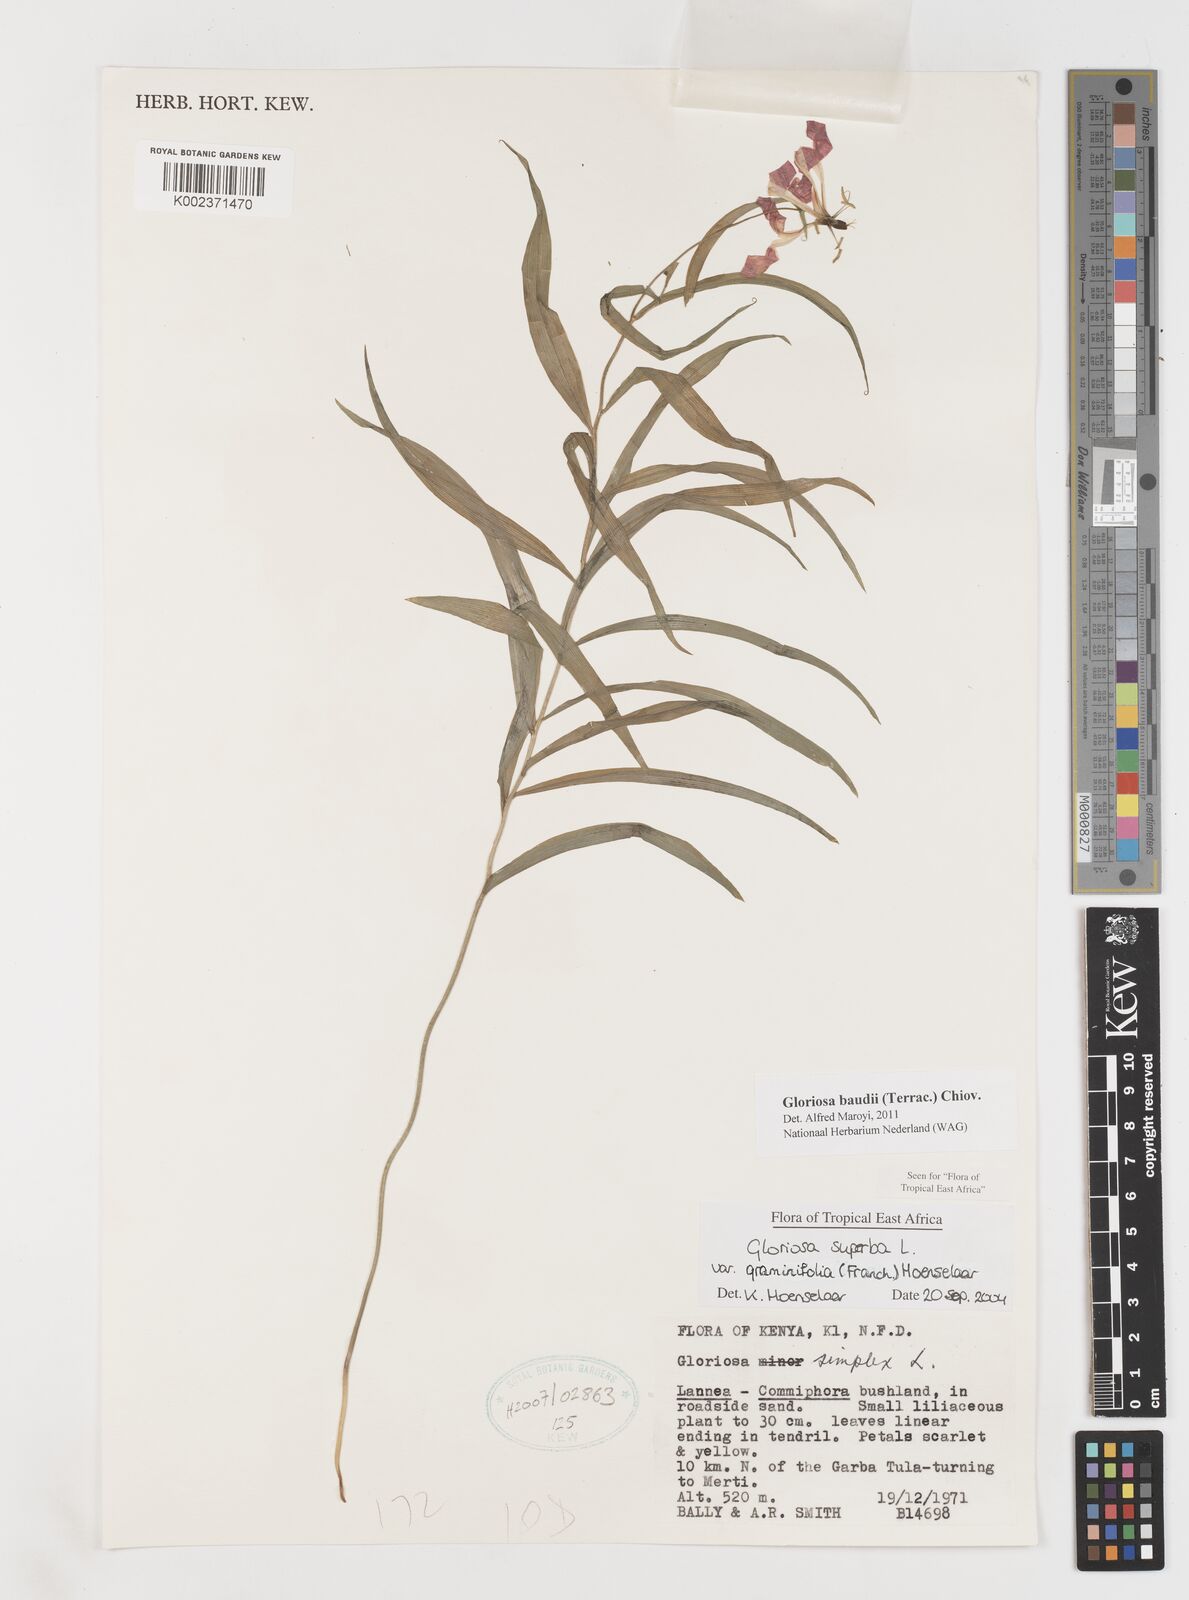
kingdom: Plantae
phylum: Tracheophyta
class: Liliopsida
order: Liliales
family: Colchicaceae
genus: Gloriosa
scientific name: Gloriosa baudii
